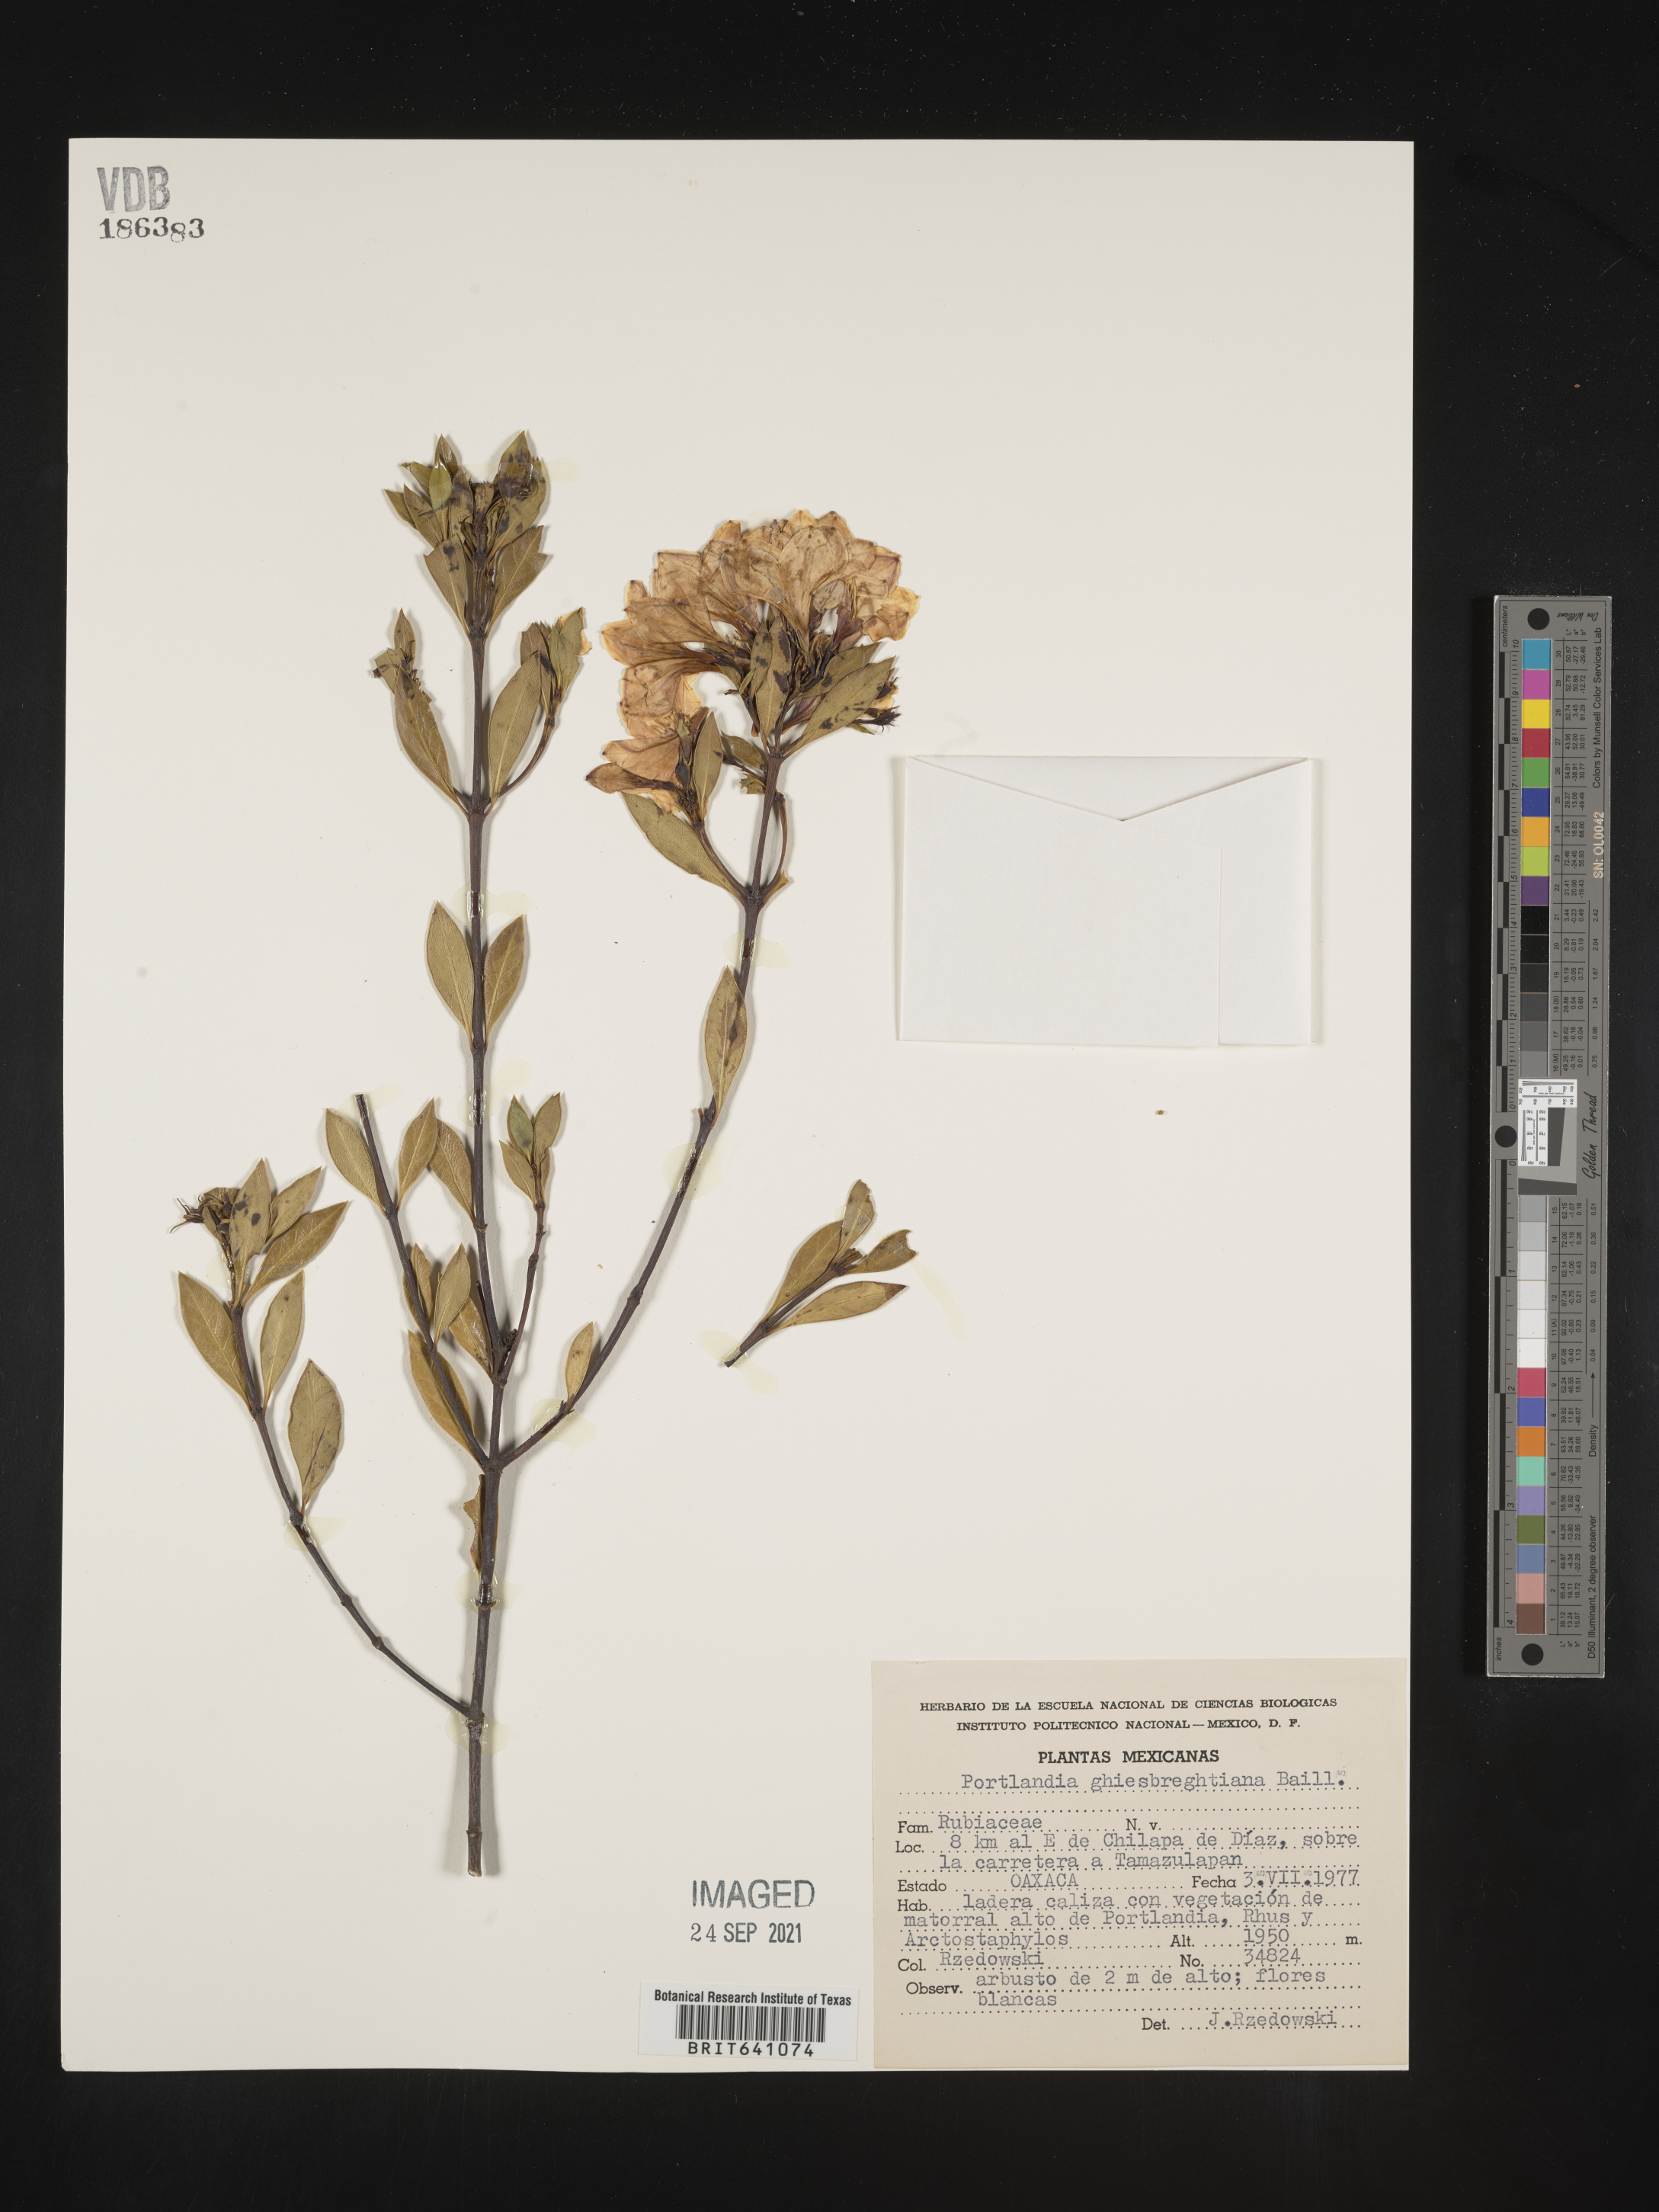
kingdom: Plantae
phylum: Tracheophyta
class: Magnoliopsida
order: Gentianales
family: Rubiaceae
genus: Portlandia
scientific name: Portlandia
